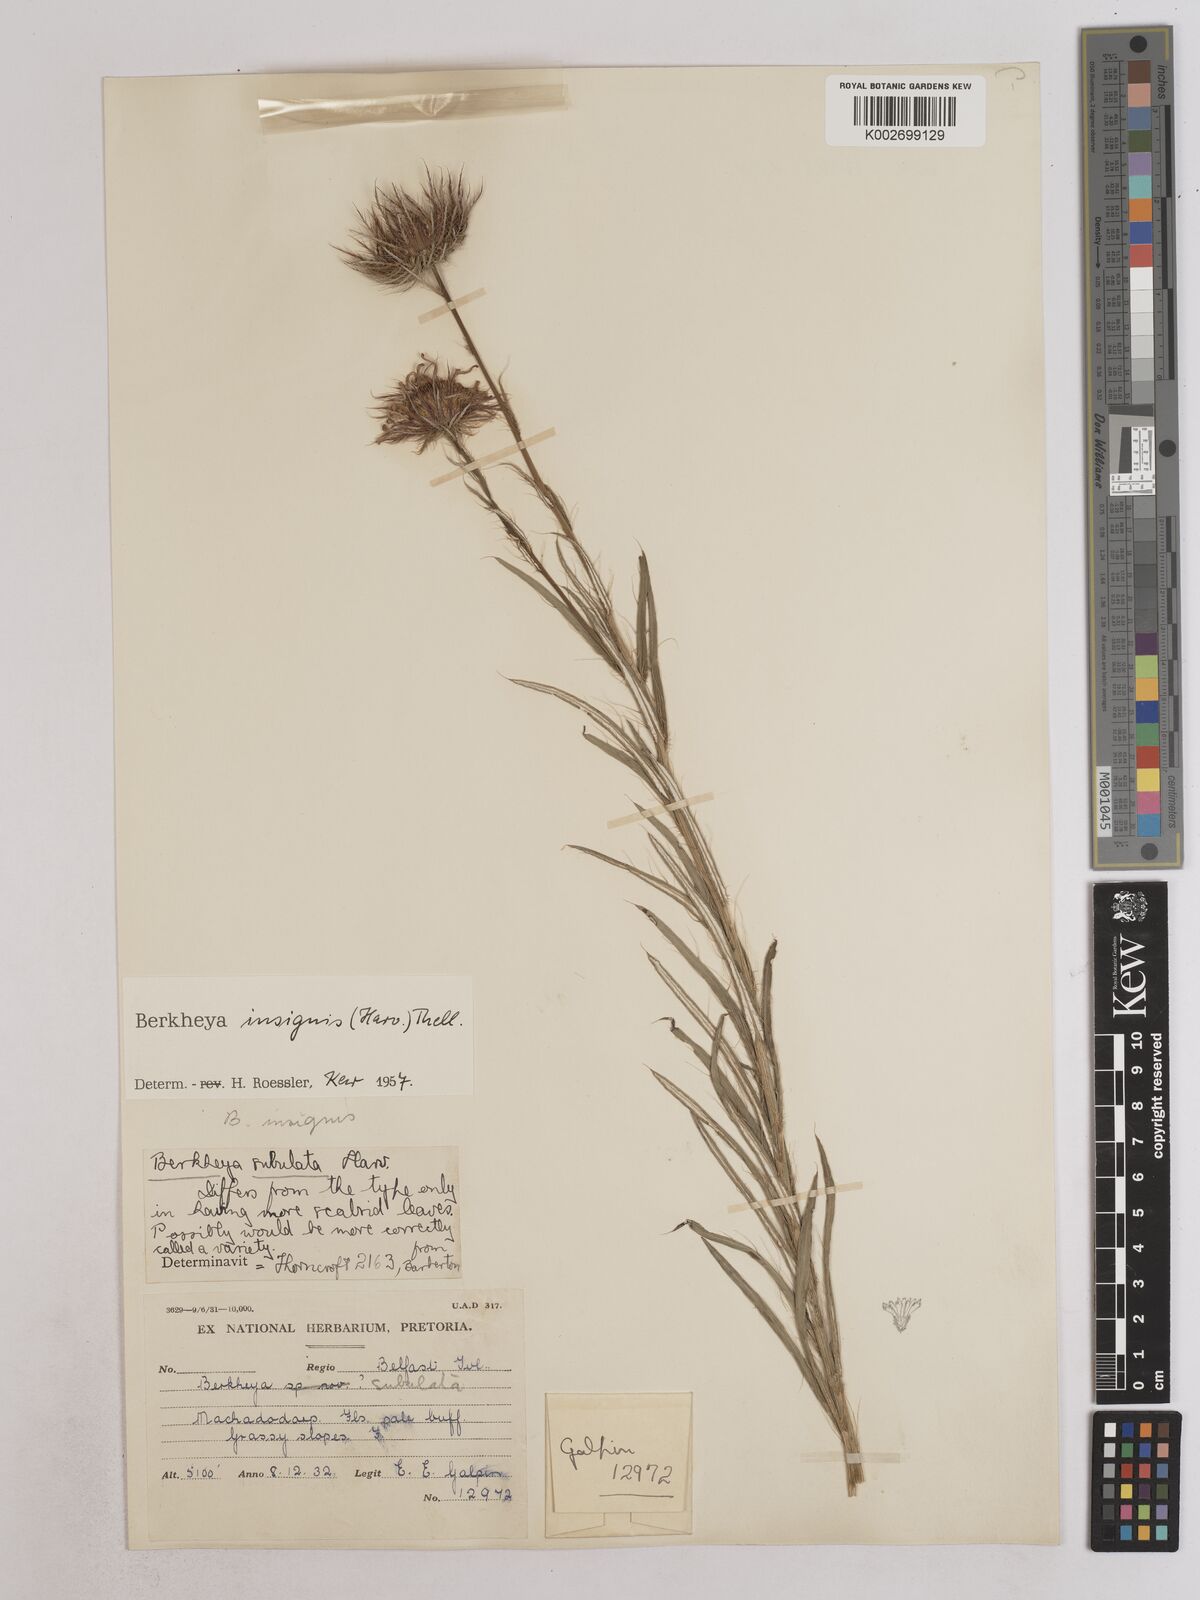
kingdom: Plantae
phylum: Tracheophyta
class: Magnoliopsida
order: Asterales
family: Asteraceae
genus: Berkheya
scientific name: Berkheya insignis
